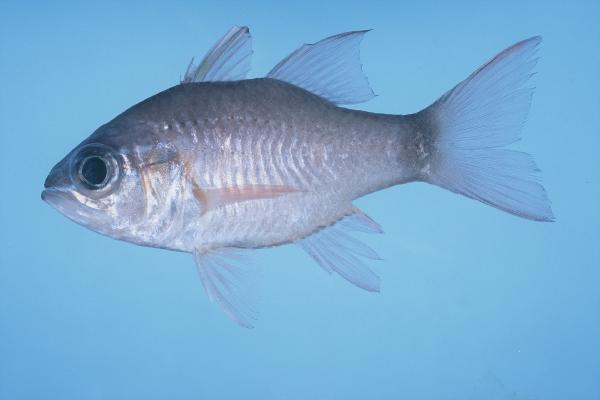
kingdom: Animalia
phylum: Chordata
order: Perciformes
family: Apogonidae
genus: Ostorhinchus
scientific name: Ostorhinchus fleurieu
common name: Bullseye cardinalfish
